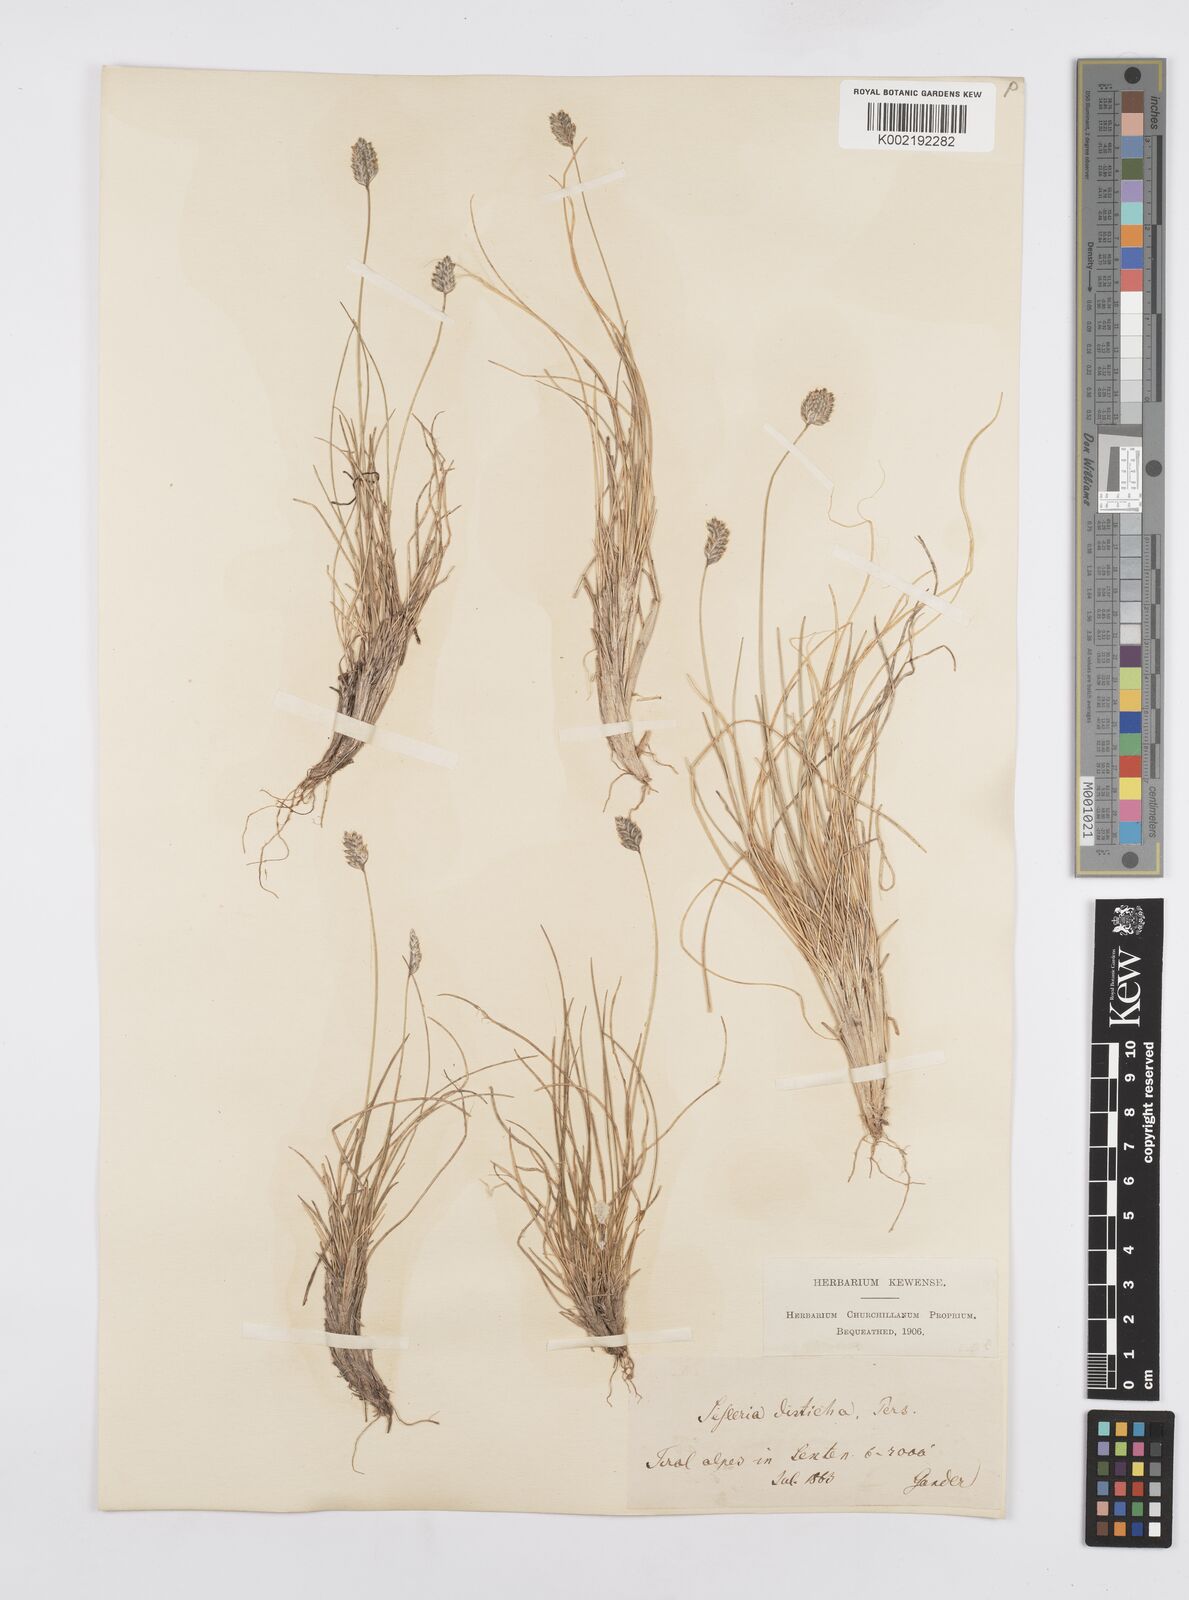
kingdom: Plantae
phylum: Tracheophyta
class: Liliopsida
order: Poales
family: Poaceae
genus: Oreochloa
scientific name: Oreochloa disticha
